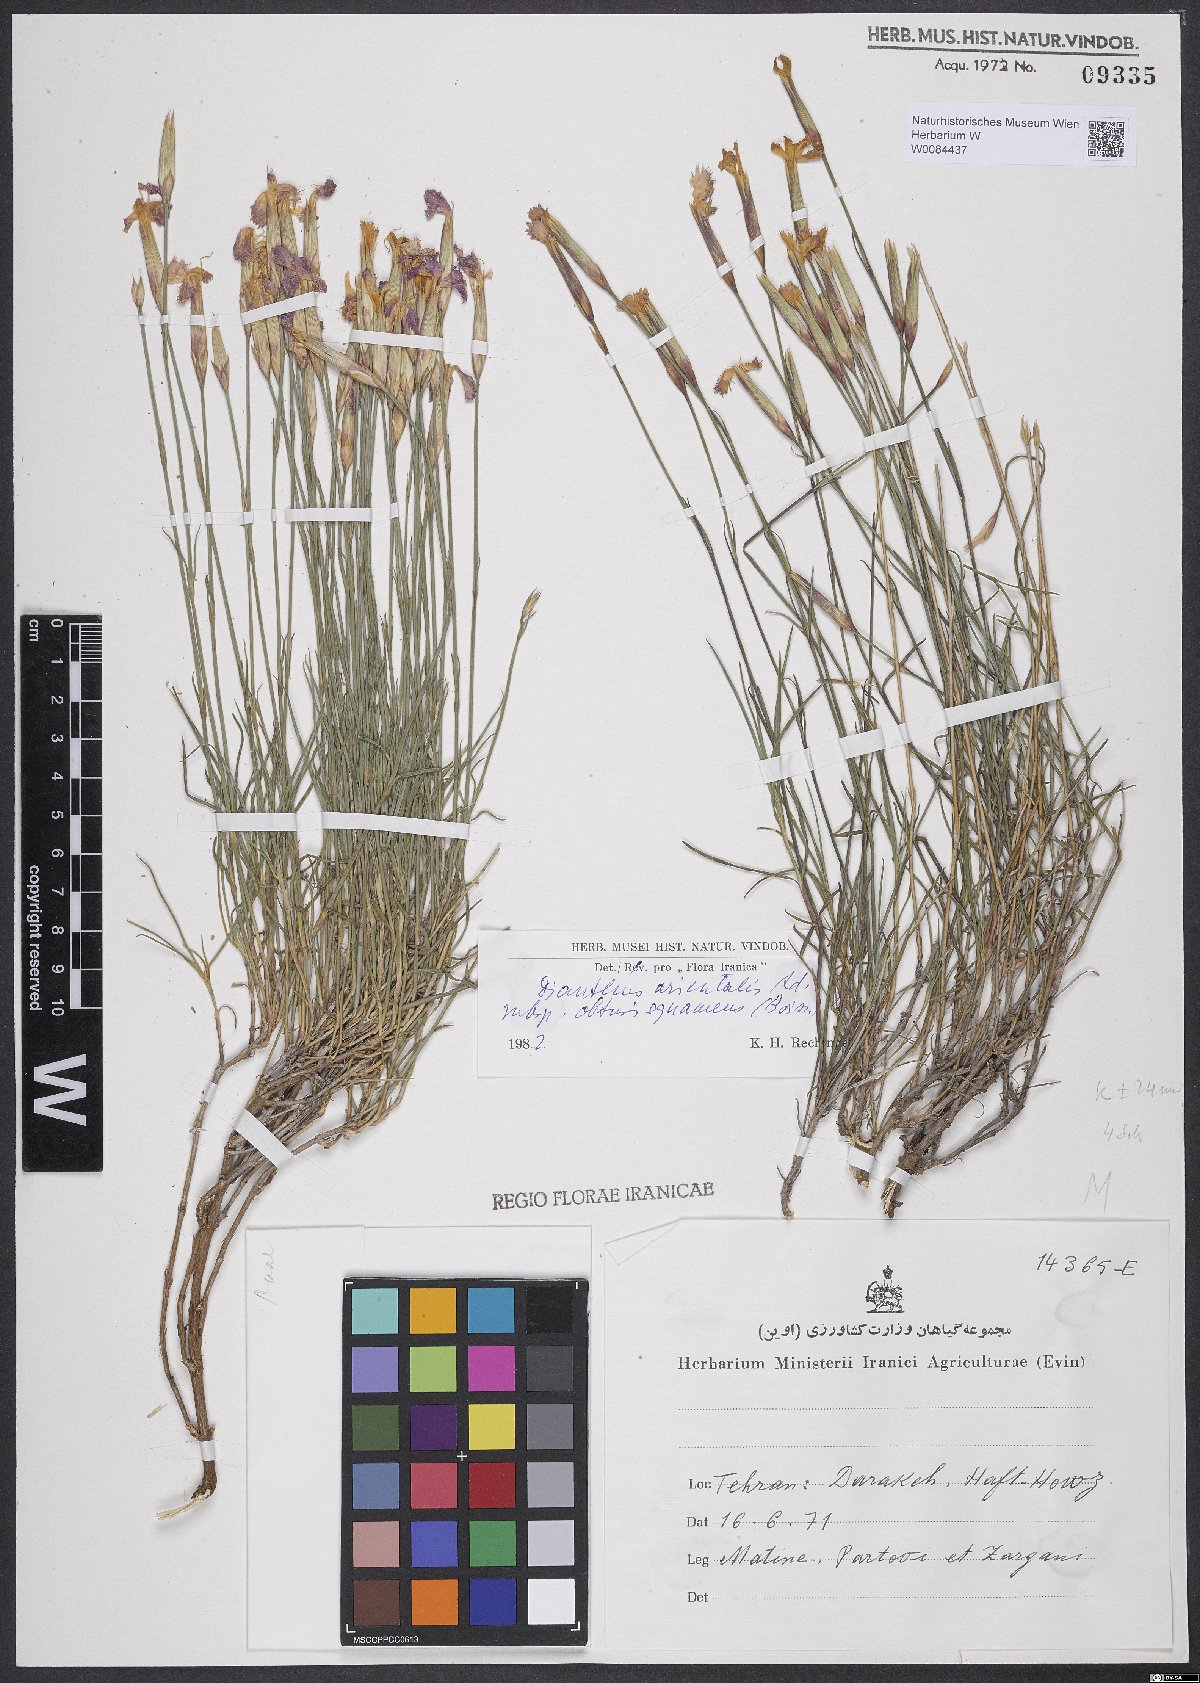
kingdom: Plantae
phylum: Tracheophyta
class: Magnoliopsida
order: Caryophyllales
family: Caryophyllaceae
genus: Dianthus
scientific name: Dianthus orientalis
